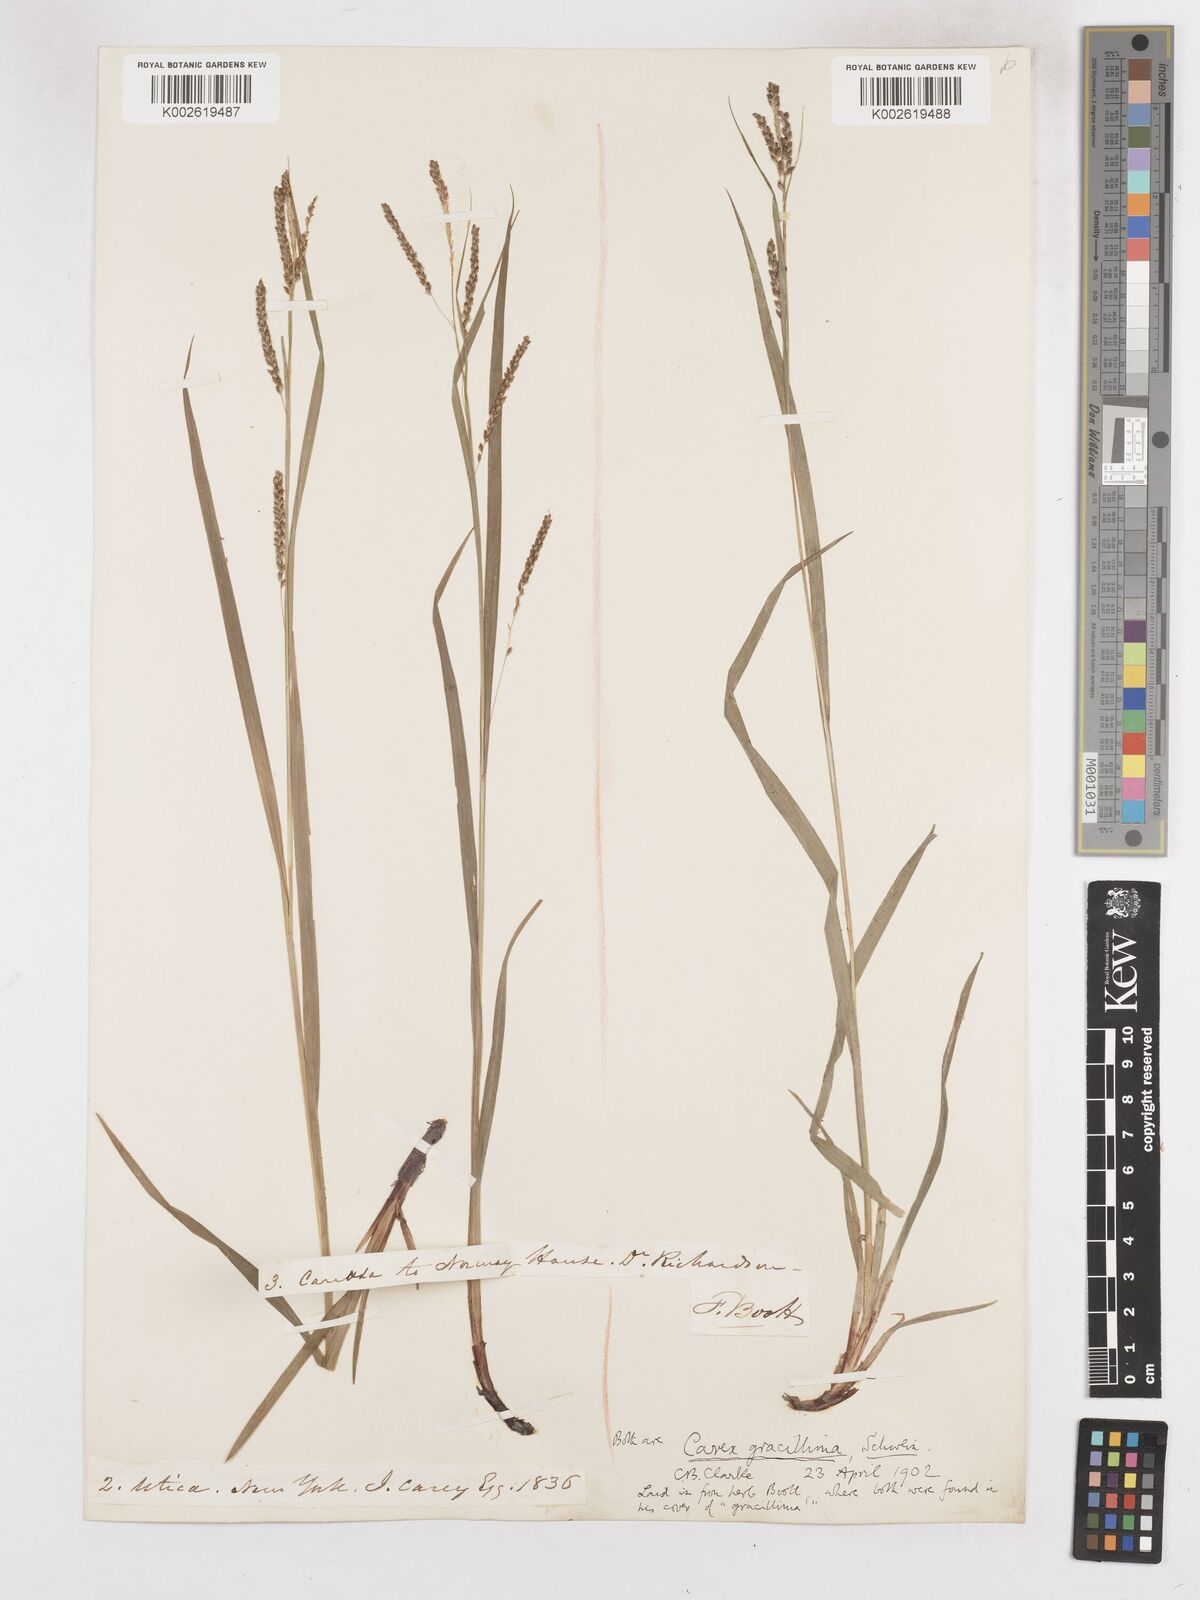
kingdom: Plantae
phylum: Tracheophyta
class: Liliopsida
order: Poales
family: Cyperaceae
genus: Carex
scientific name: Carex gracillima
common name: Graceful sedge
